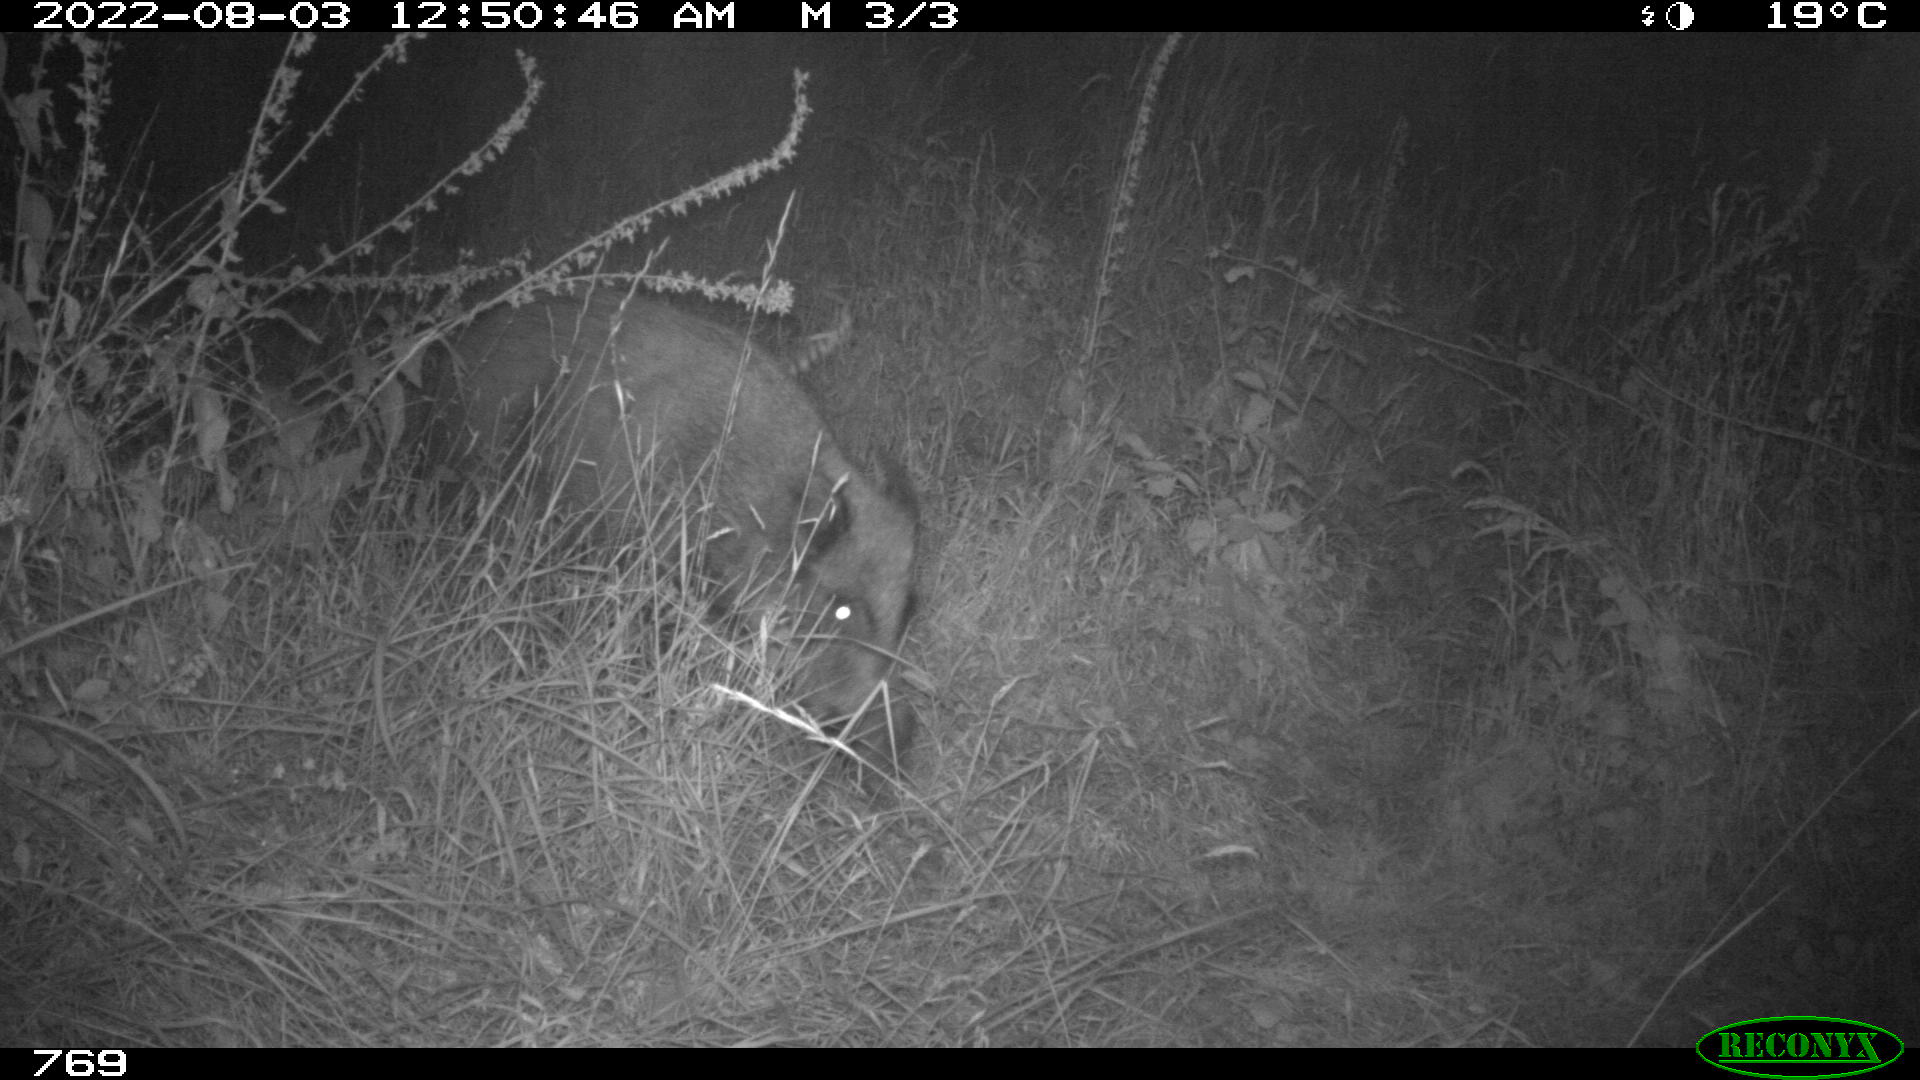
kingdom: Animalia
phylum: Chordata
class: Mammalia
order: Artiodactyla
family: Suidae
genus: Sus
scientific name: Sus scrofa
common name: Wild boar
